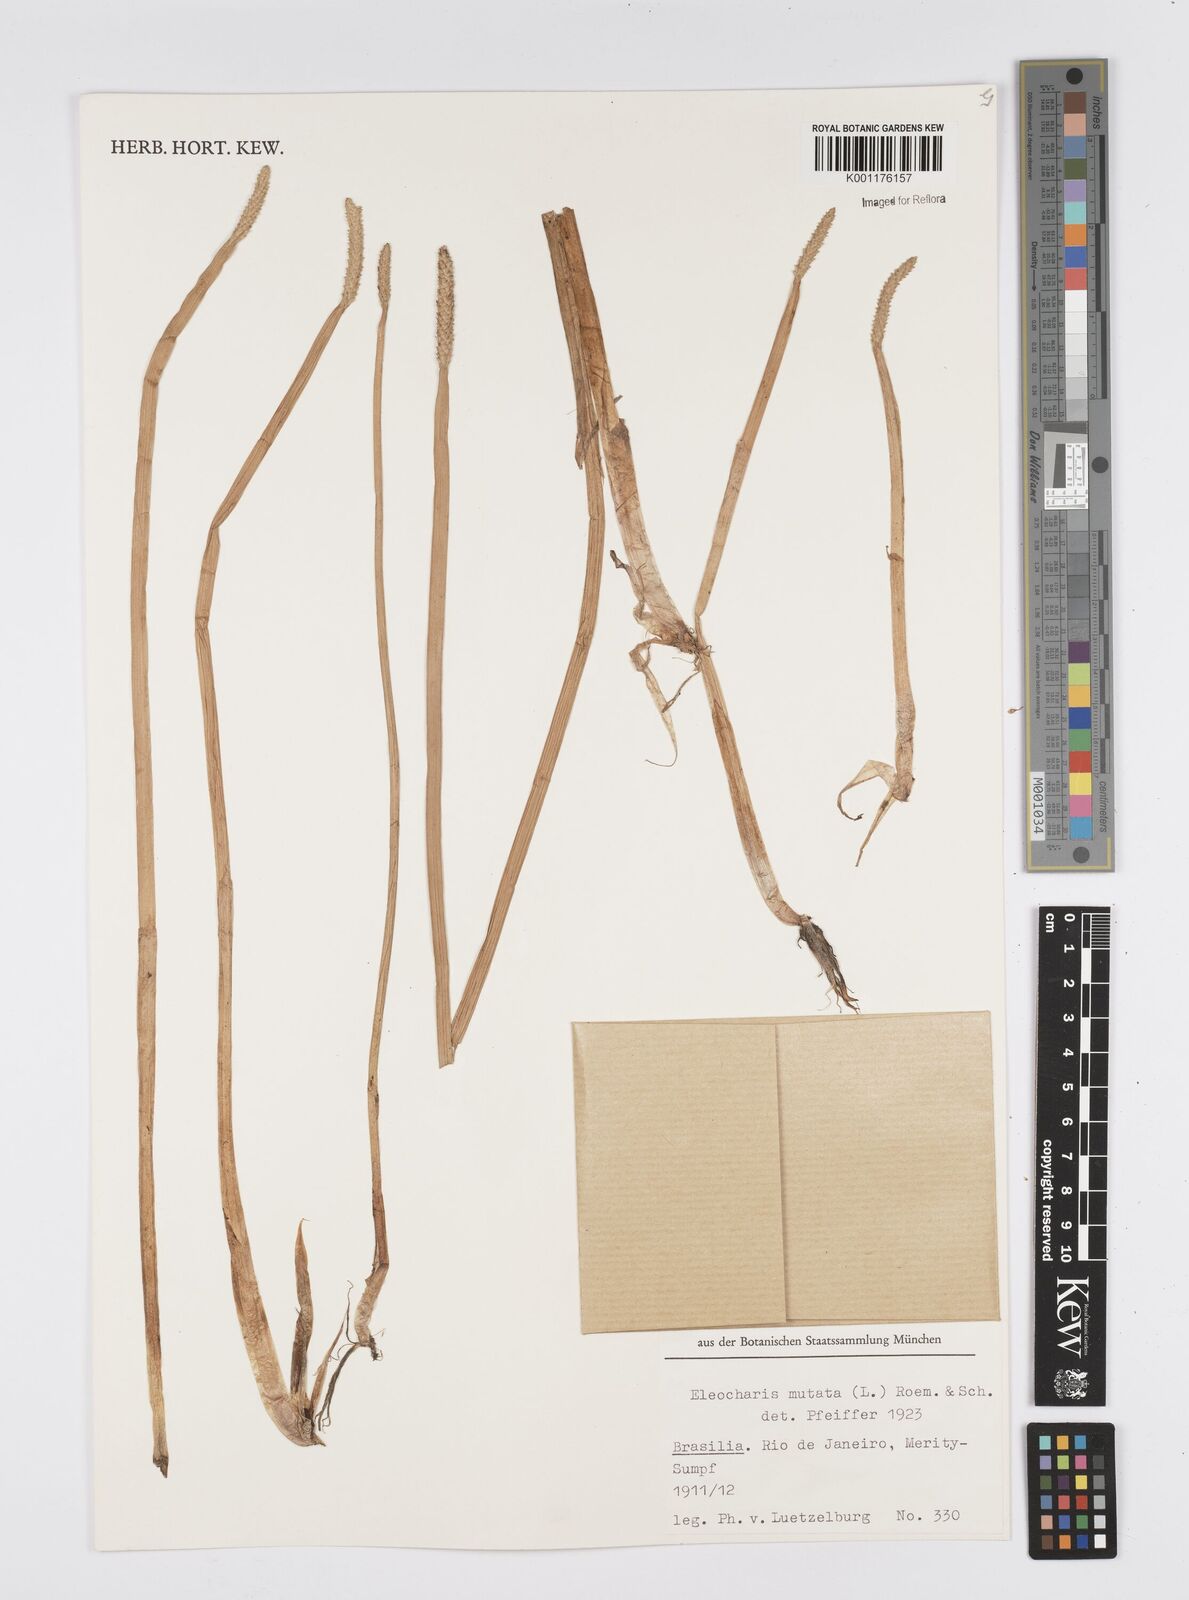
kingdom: Plantae
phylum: Tracheophyta
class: Liliopsida
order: Poales
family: Cyperaceae
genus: Eleocharis
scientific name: Eleocharis mutata
